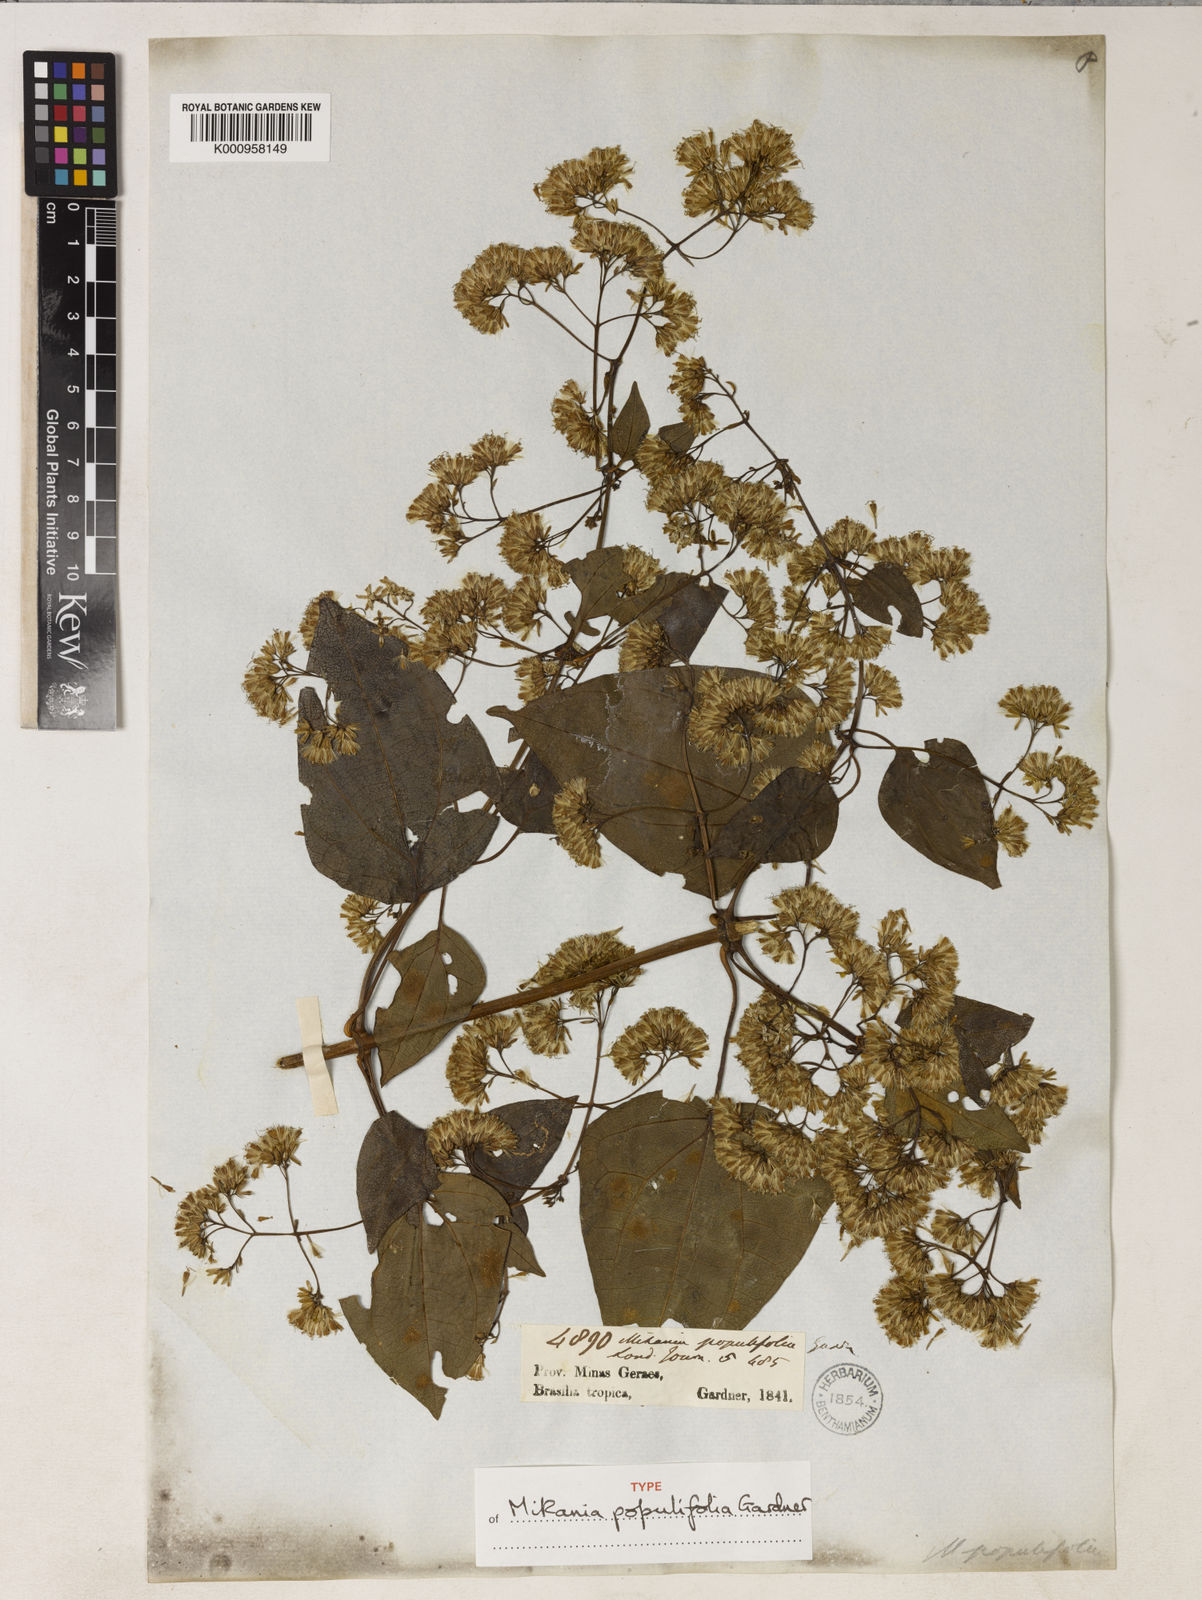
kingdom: Plantae
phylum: Tracheophyta
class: Magnoliopsida
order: Asterales
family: Asteraceae
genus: Mikania
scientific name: Mikania populifolia
